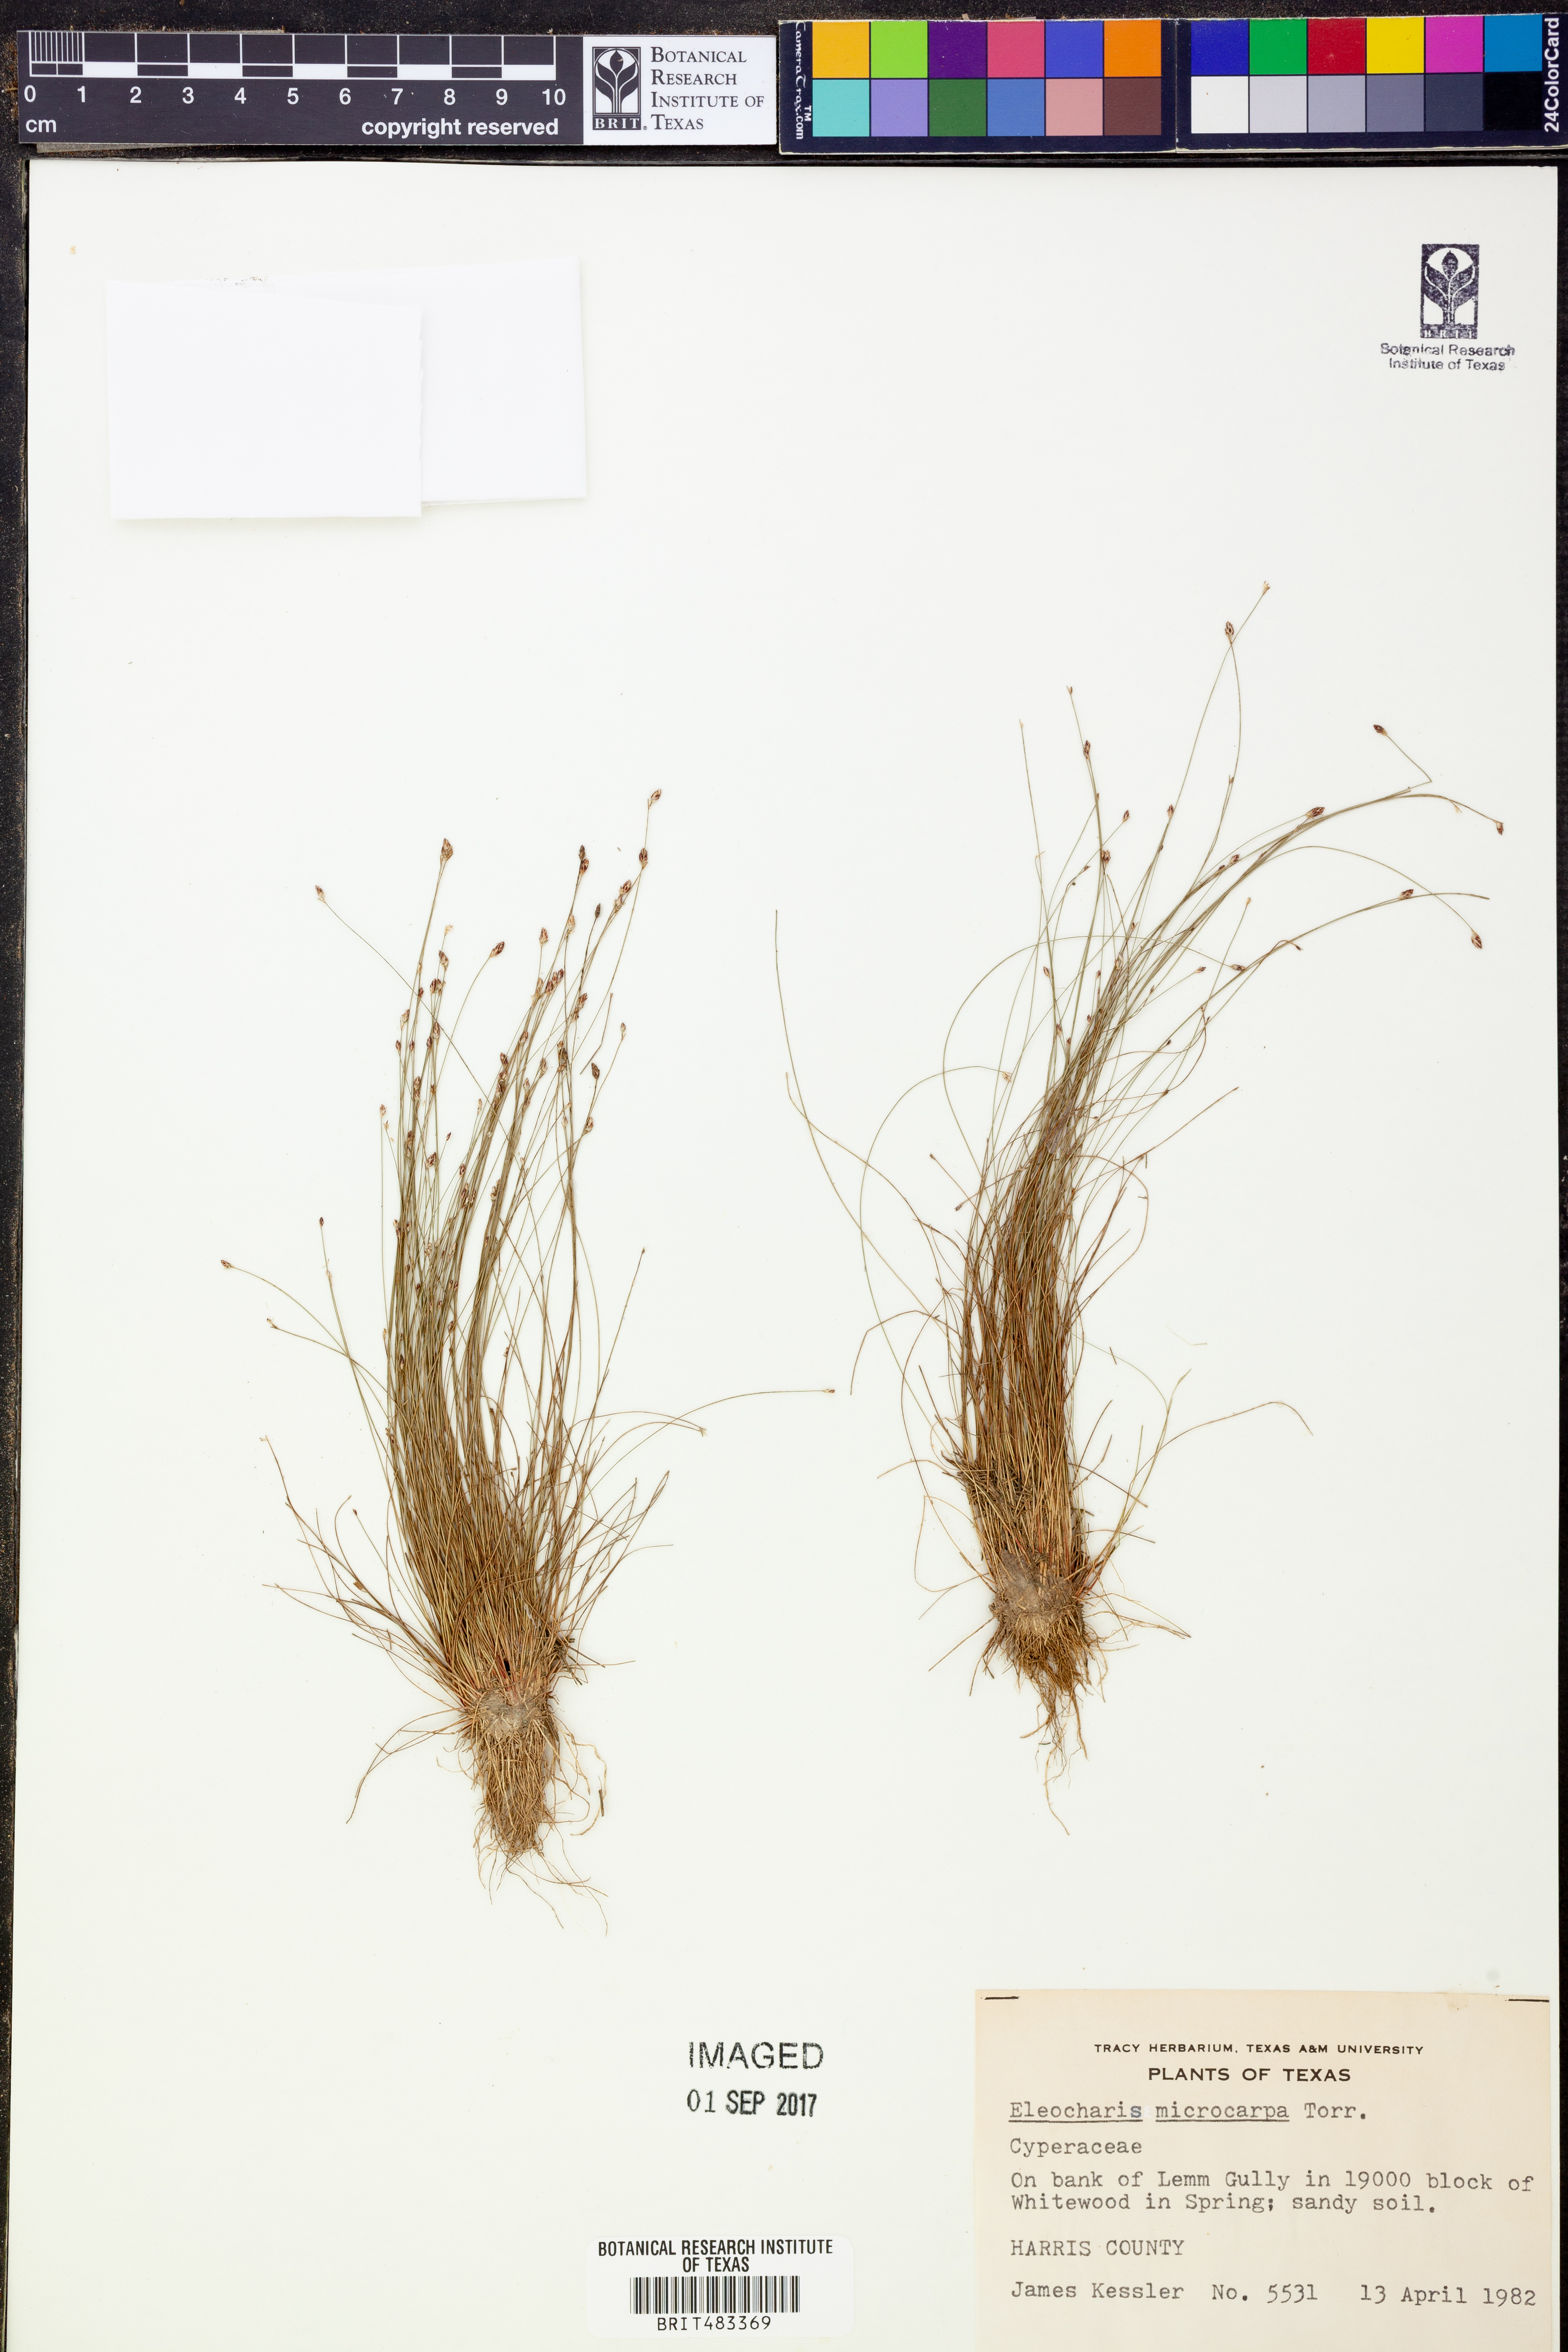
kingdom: Plantae
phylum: Tracheophyta
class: Liliopsida
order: Poales
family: Cyperaceae
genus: Eleocharis
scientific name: Eleocharis microcarpa
